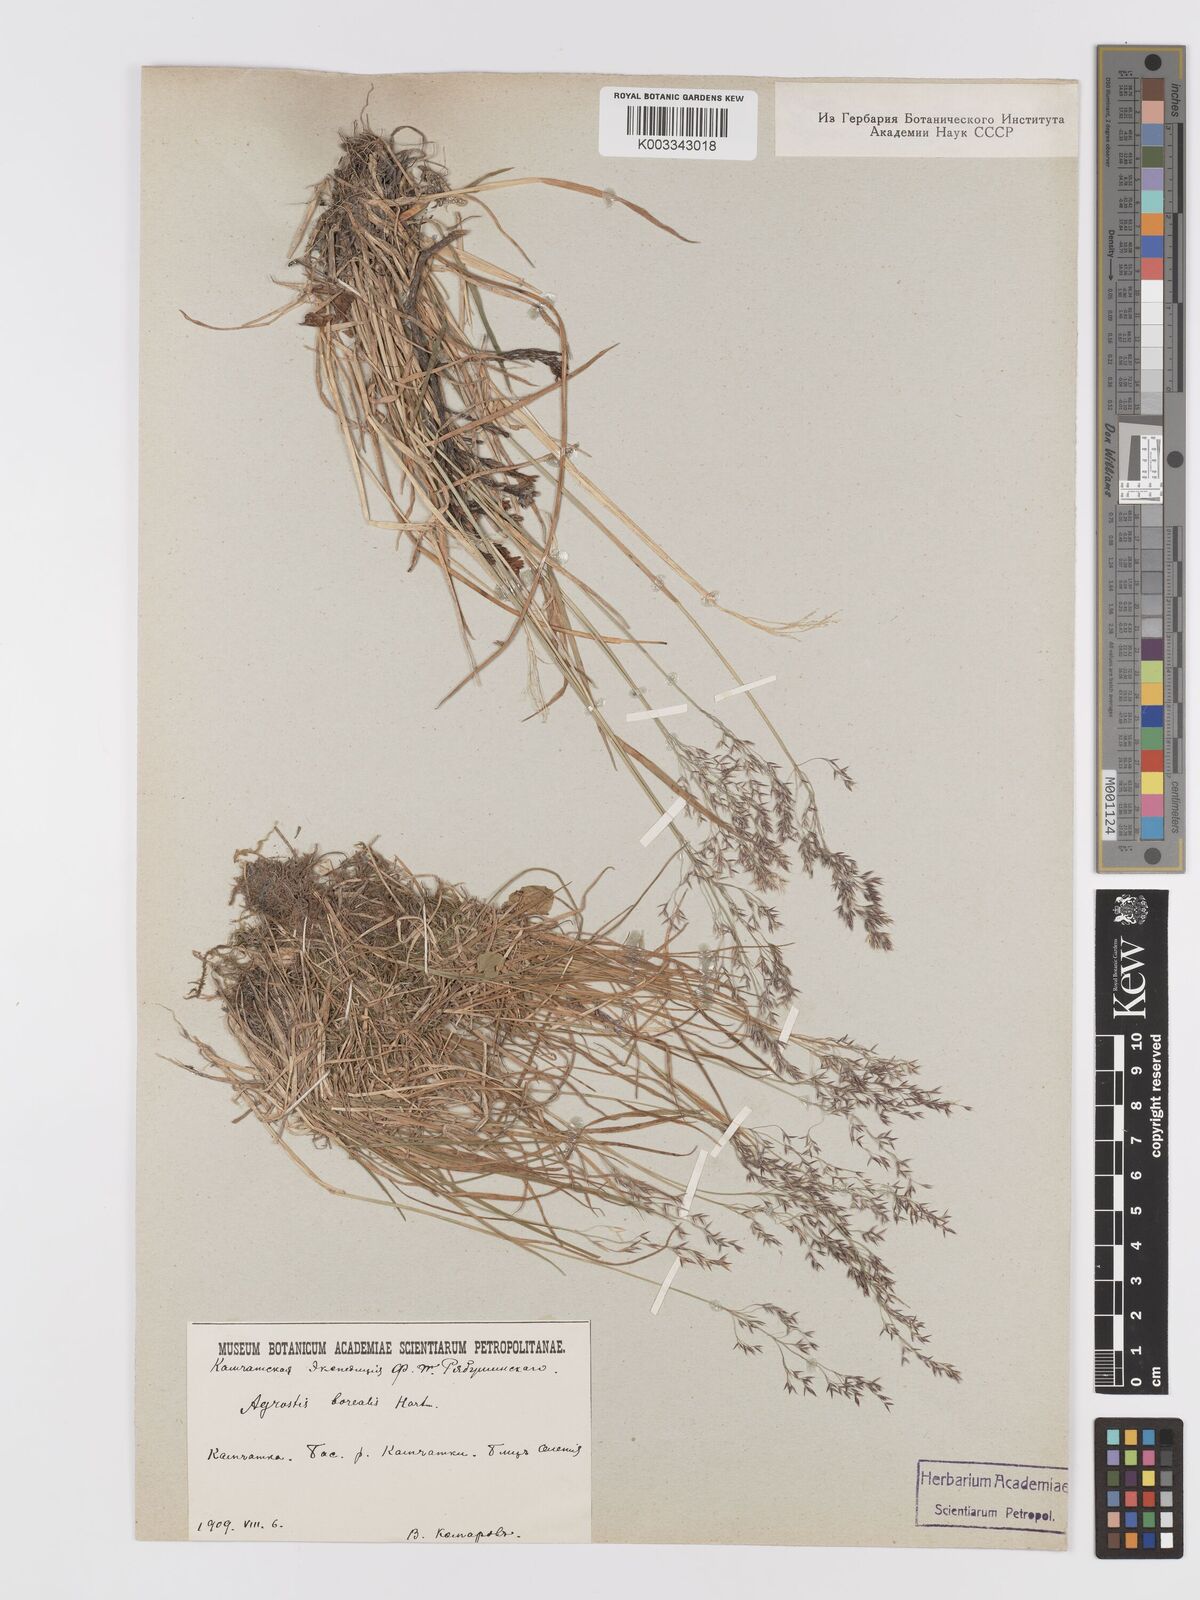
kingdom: Plantae
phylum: Tracheophyta
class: Liliopsida
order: Poales
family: Poaceae
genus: Agrostis
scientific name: Agrostis mertensii
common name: Northern bent
